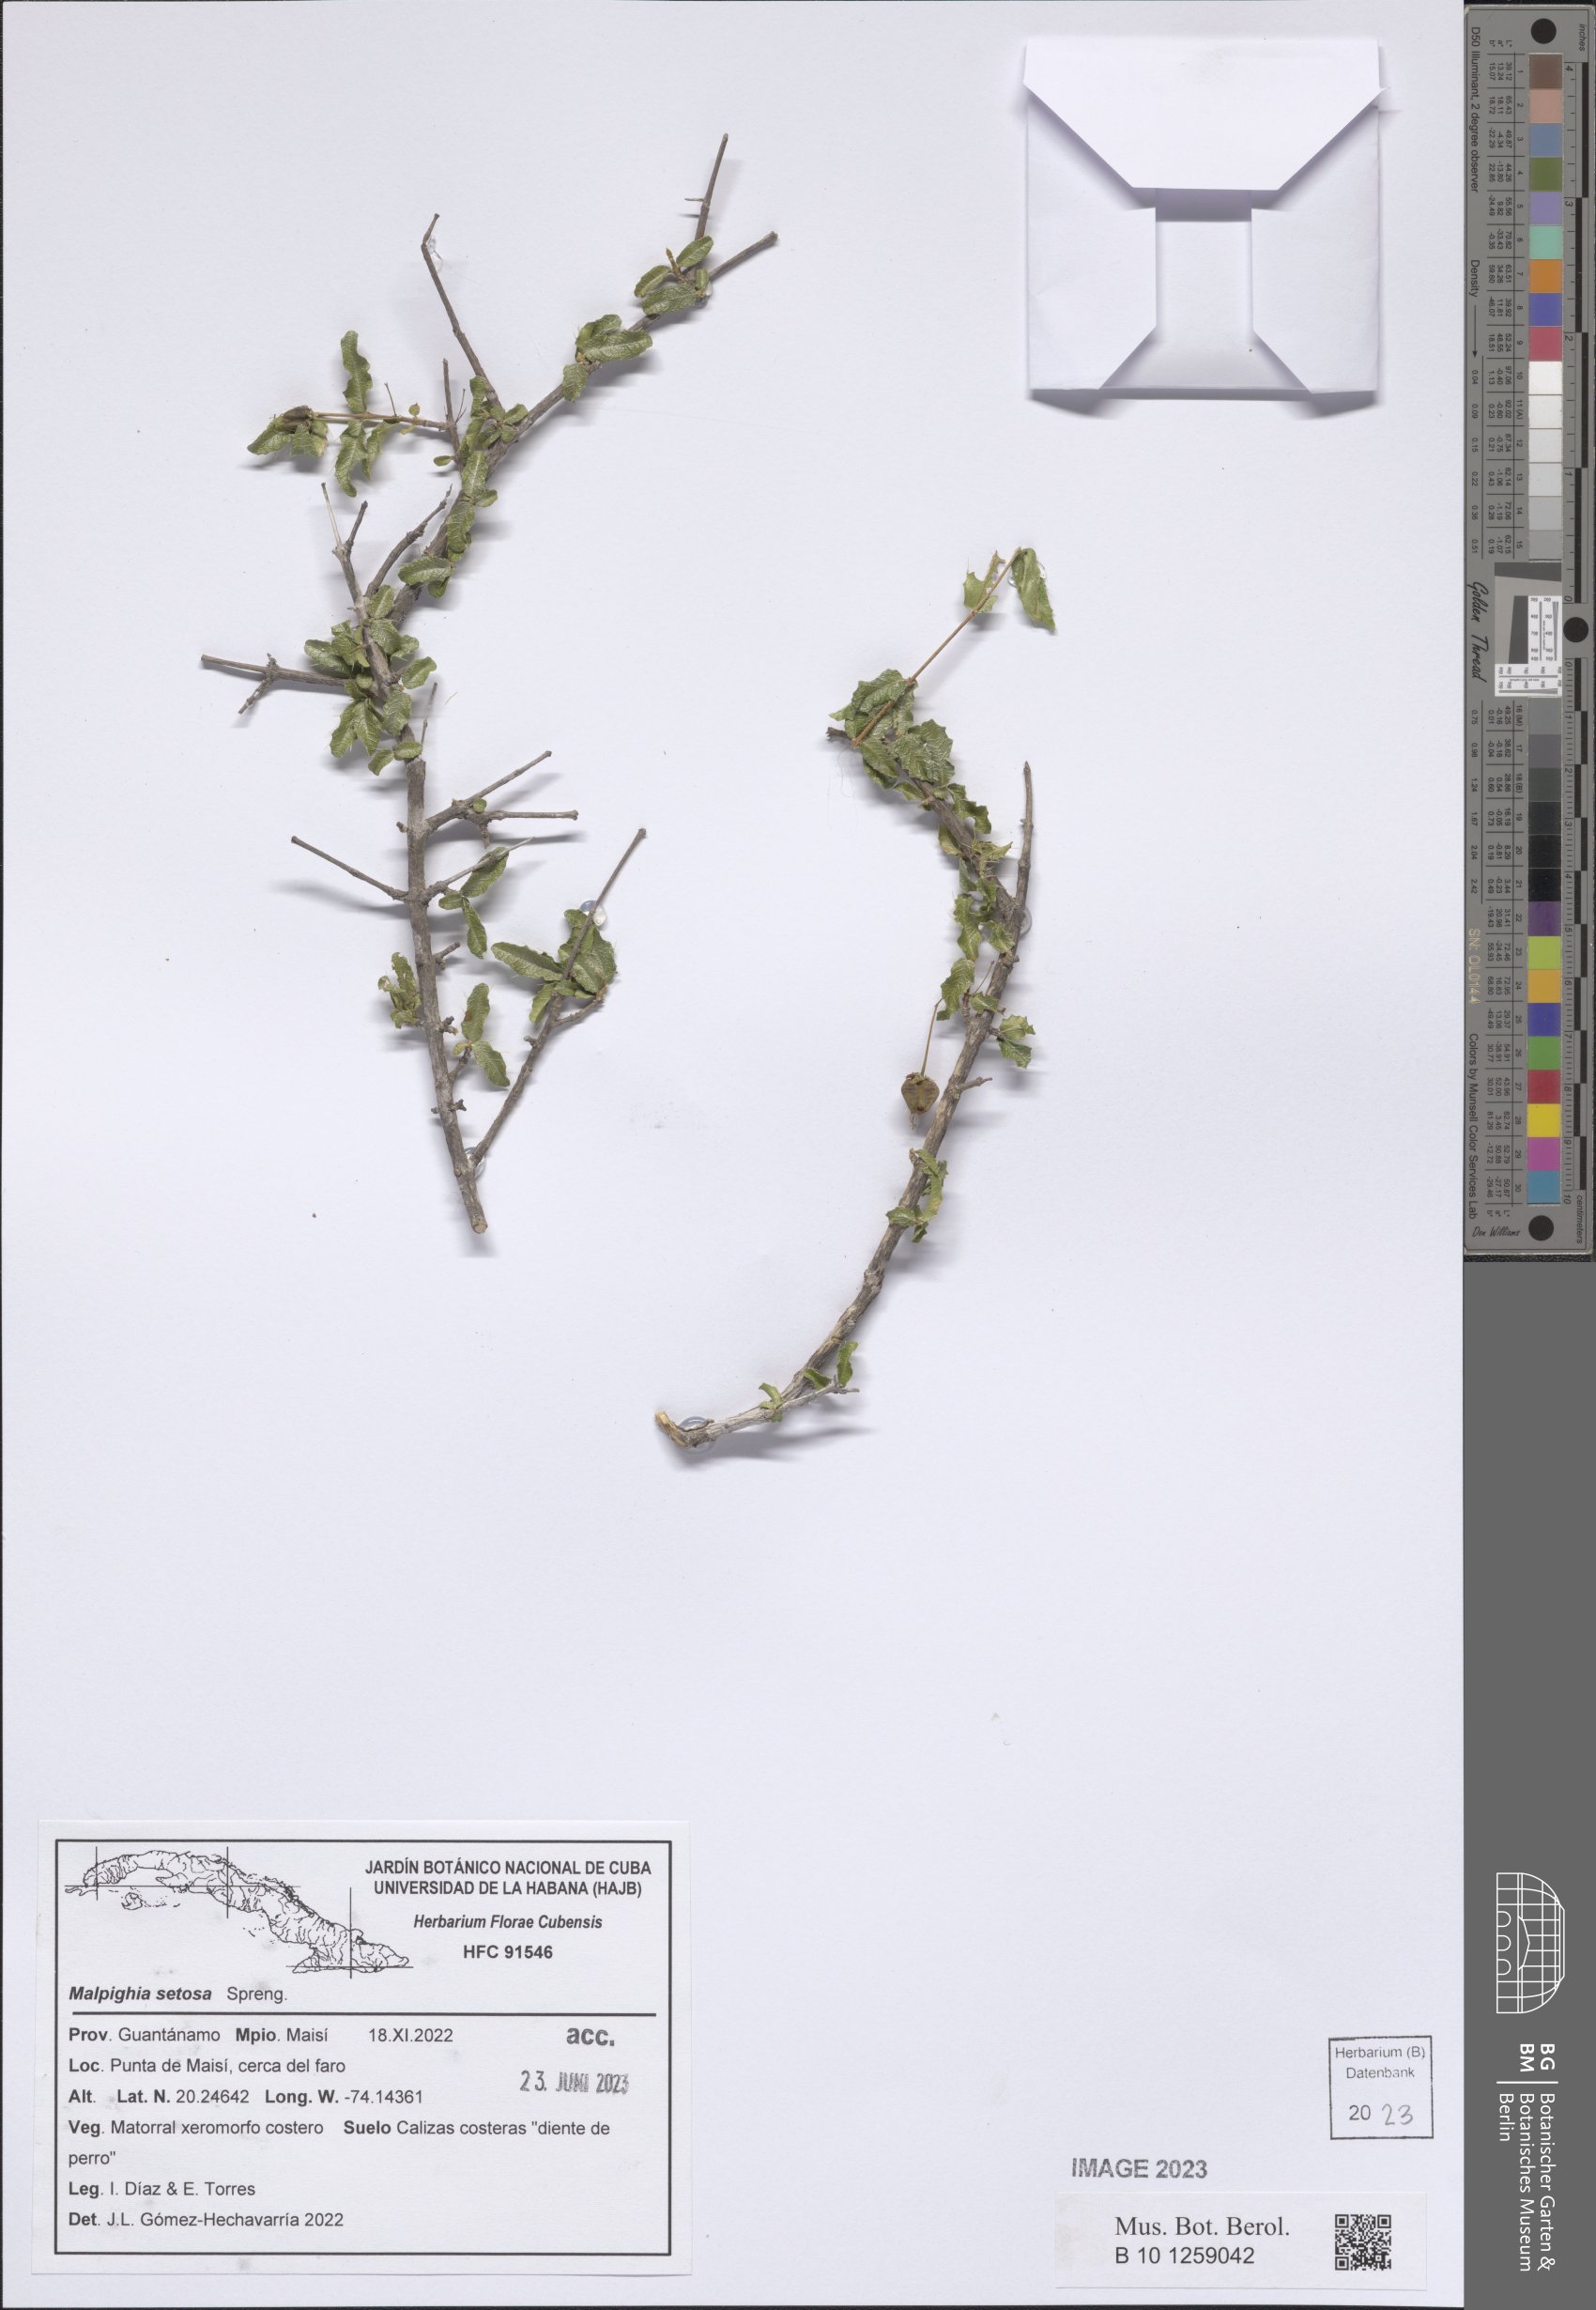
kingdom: Plantae
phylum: Tracheophyta
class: Magnoliopsida
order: Malpighiales
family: Malpighiaceae
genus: Malpighia
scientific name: Malpighia setosa
